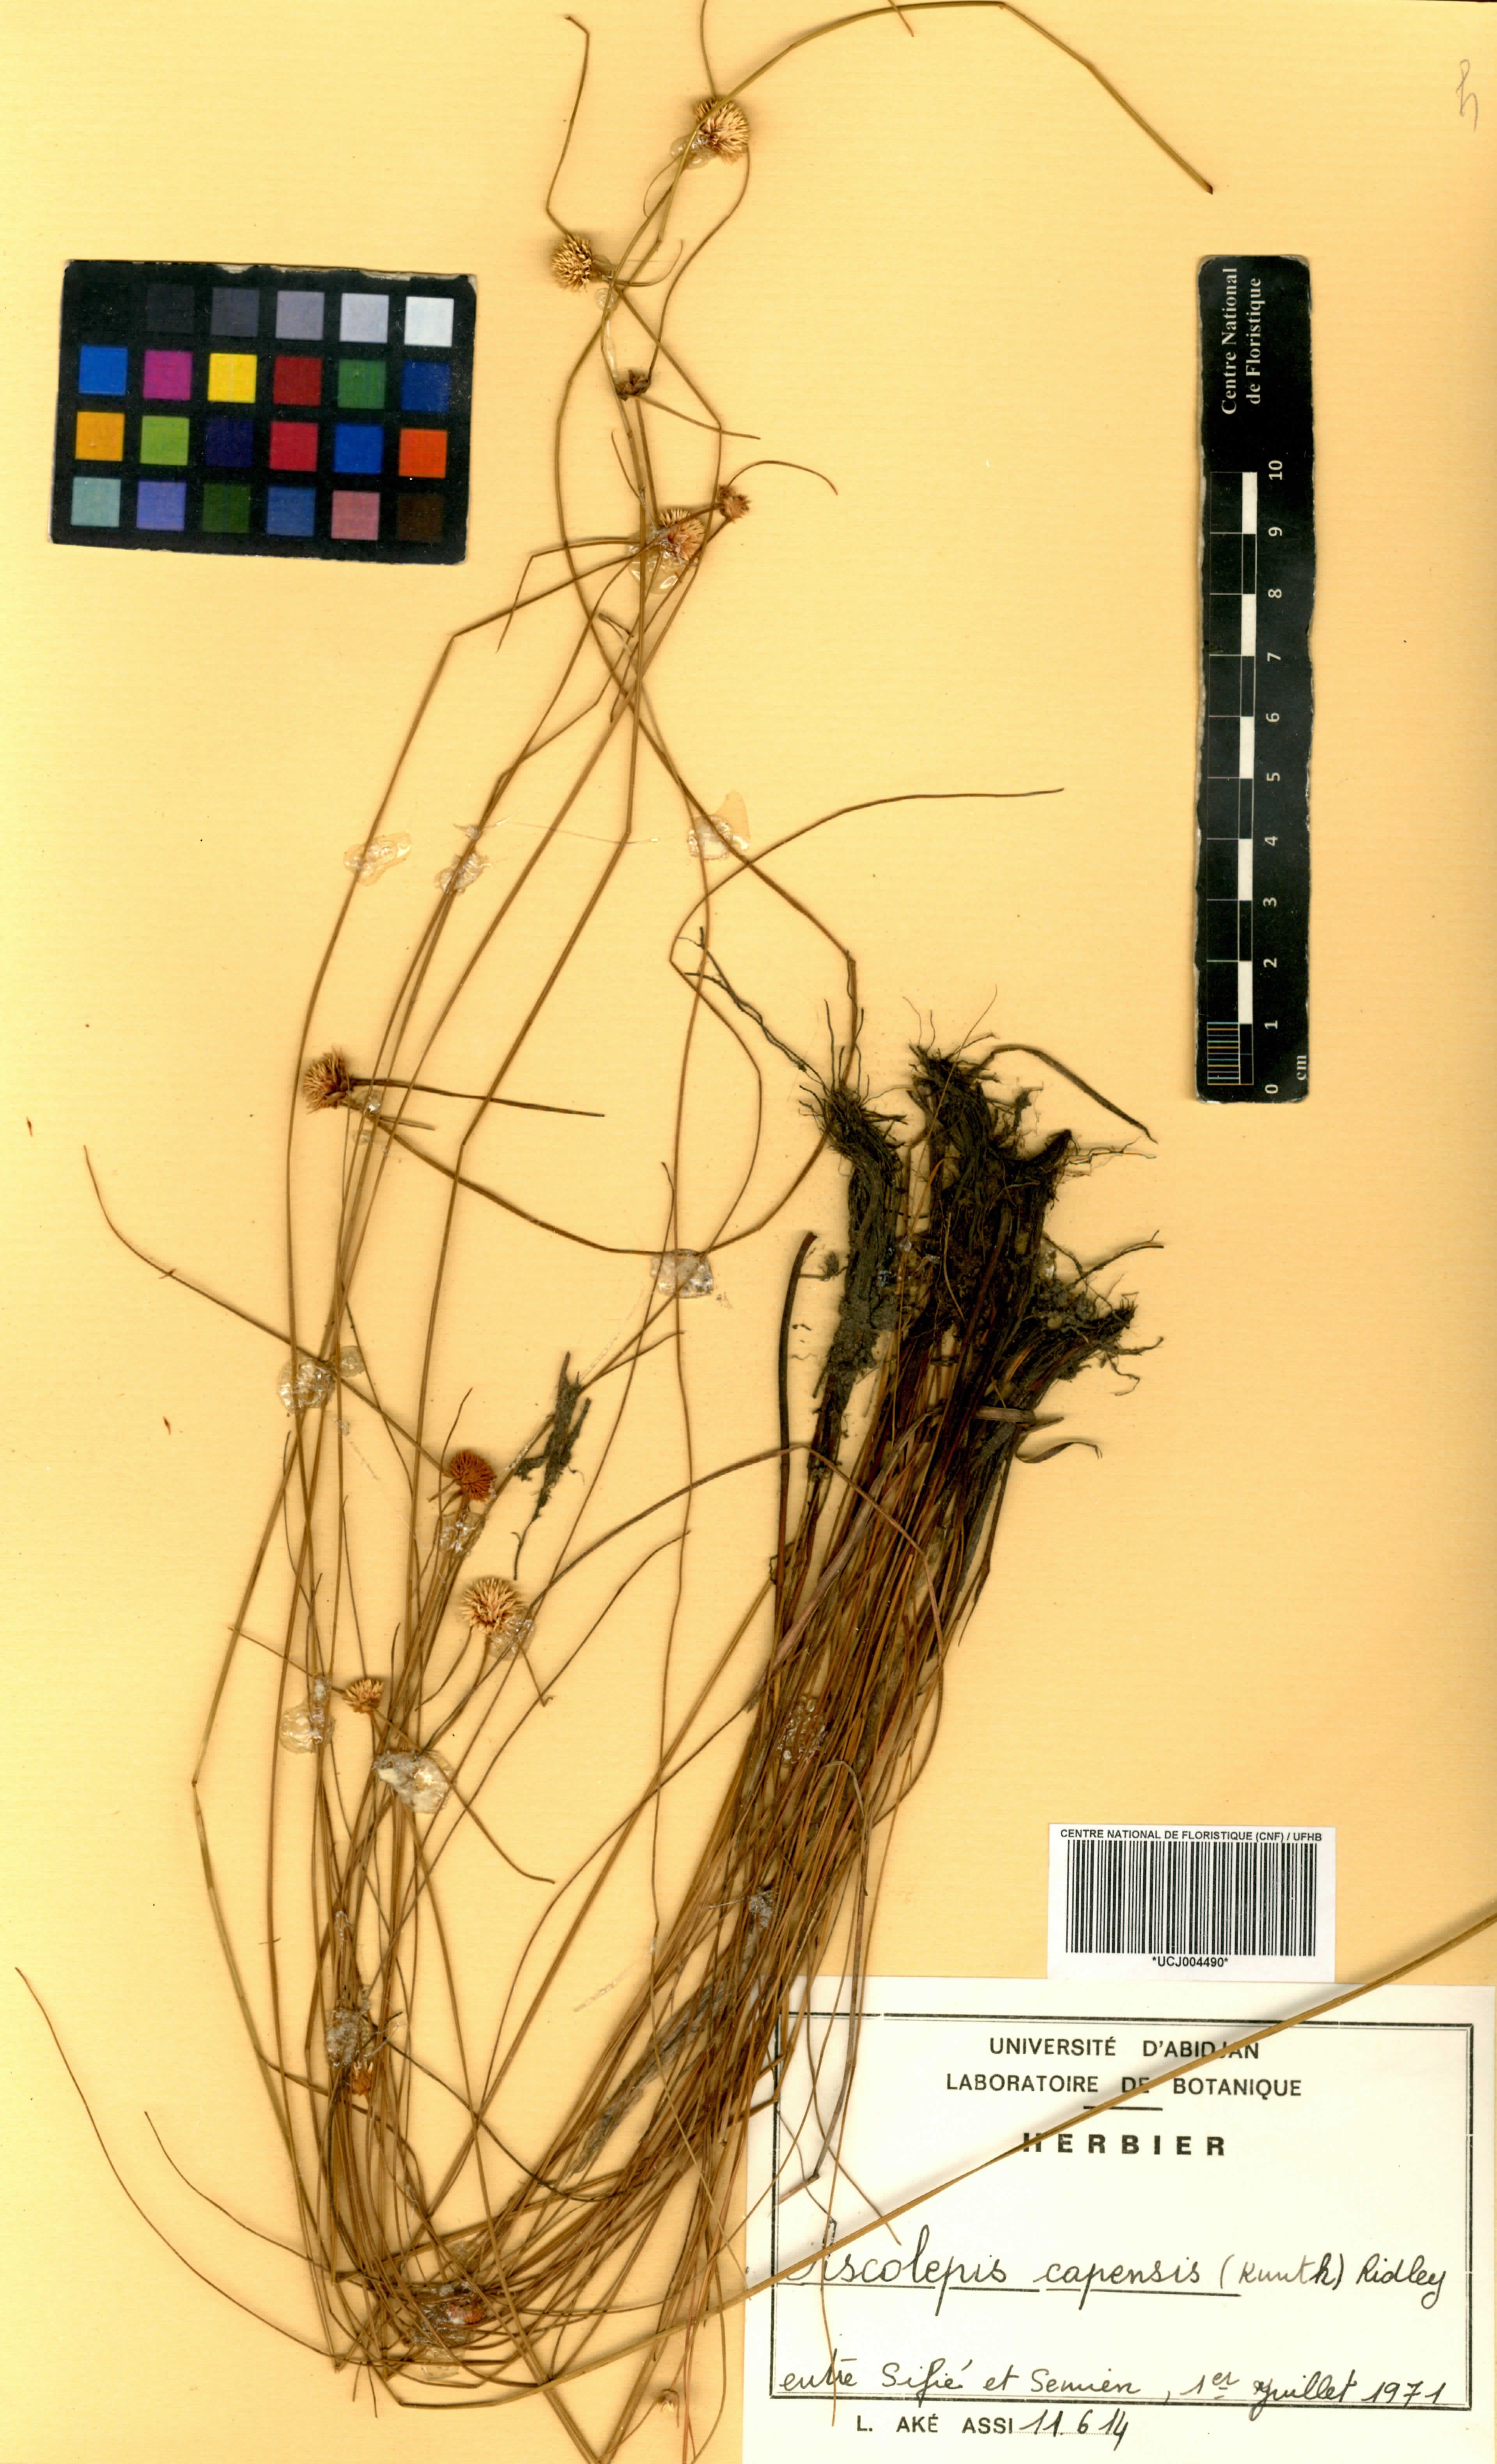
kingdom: Plantae
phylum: Tracheophyta
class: Liliopsida
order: Poales
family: Cyperaceae
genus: Cyperus
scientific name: Cyperus ascocapensis
